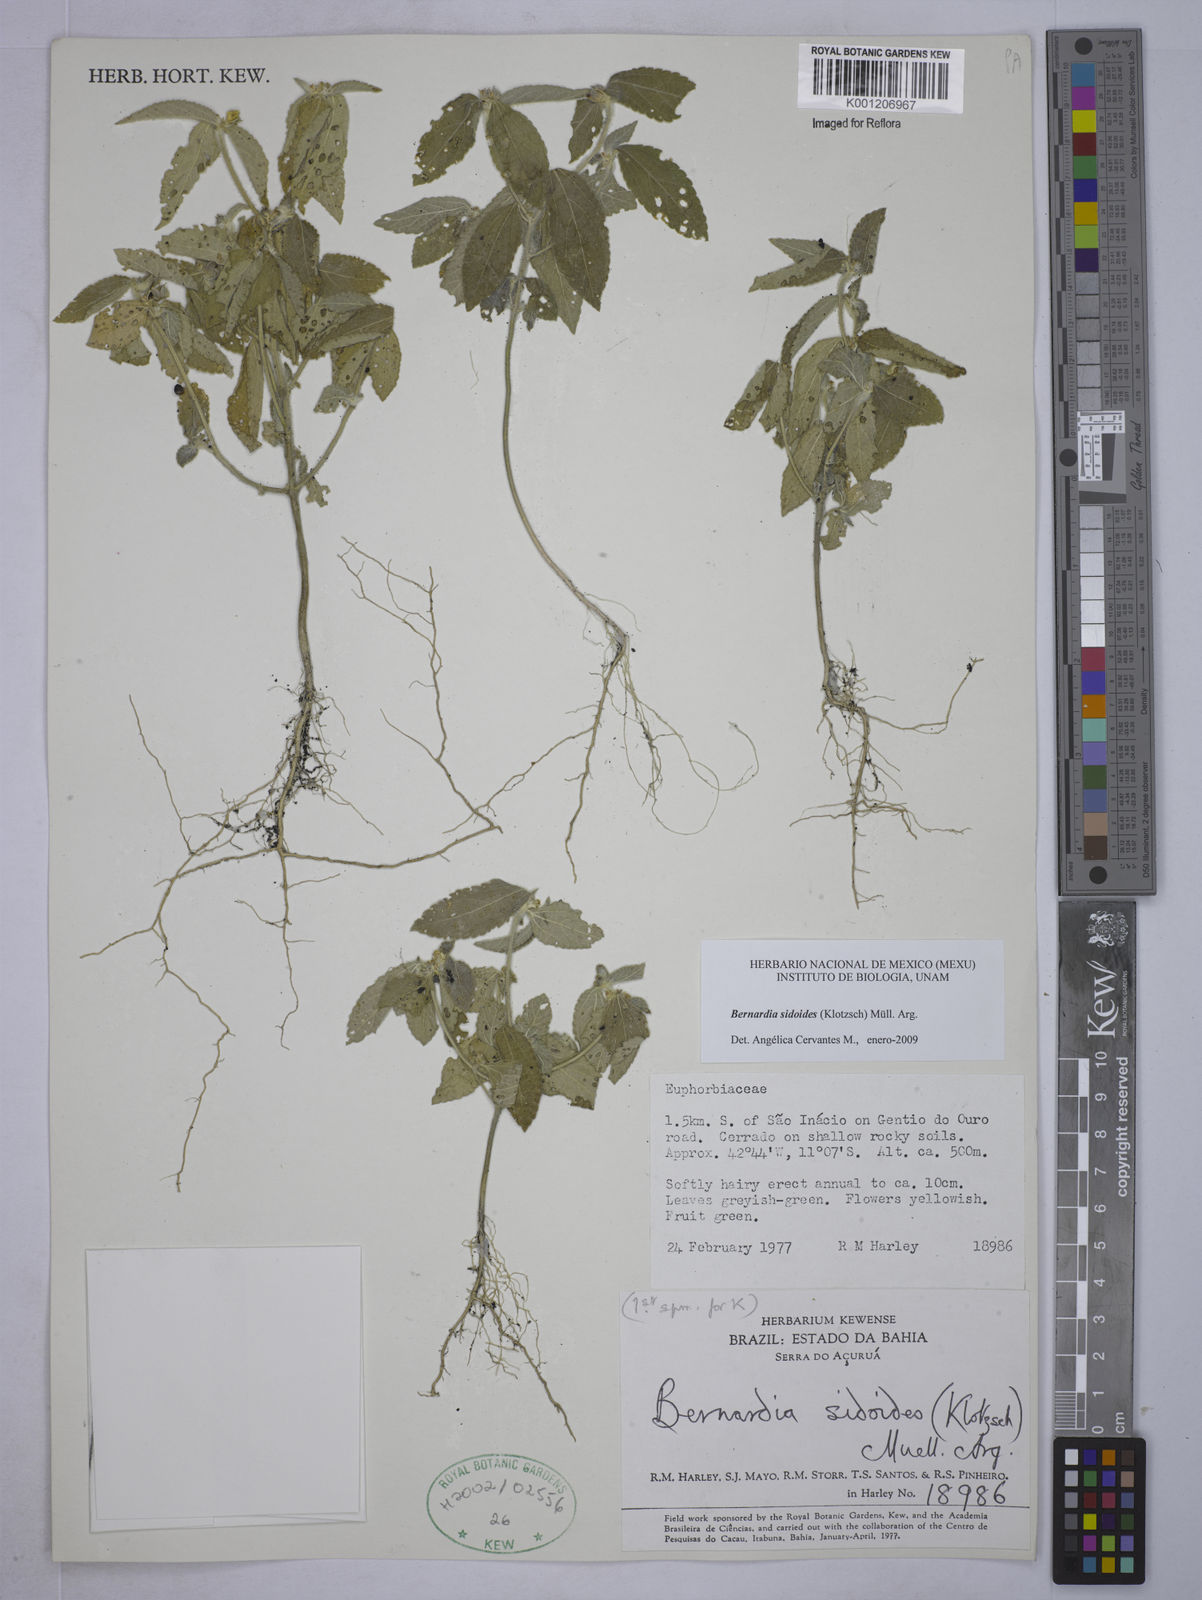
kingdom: Plantae
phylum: Tracheophyta
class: Magnoliopsida
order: Malpighiales
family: Euphorbiaceae
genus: Bernardia
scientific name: Bernardia
